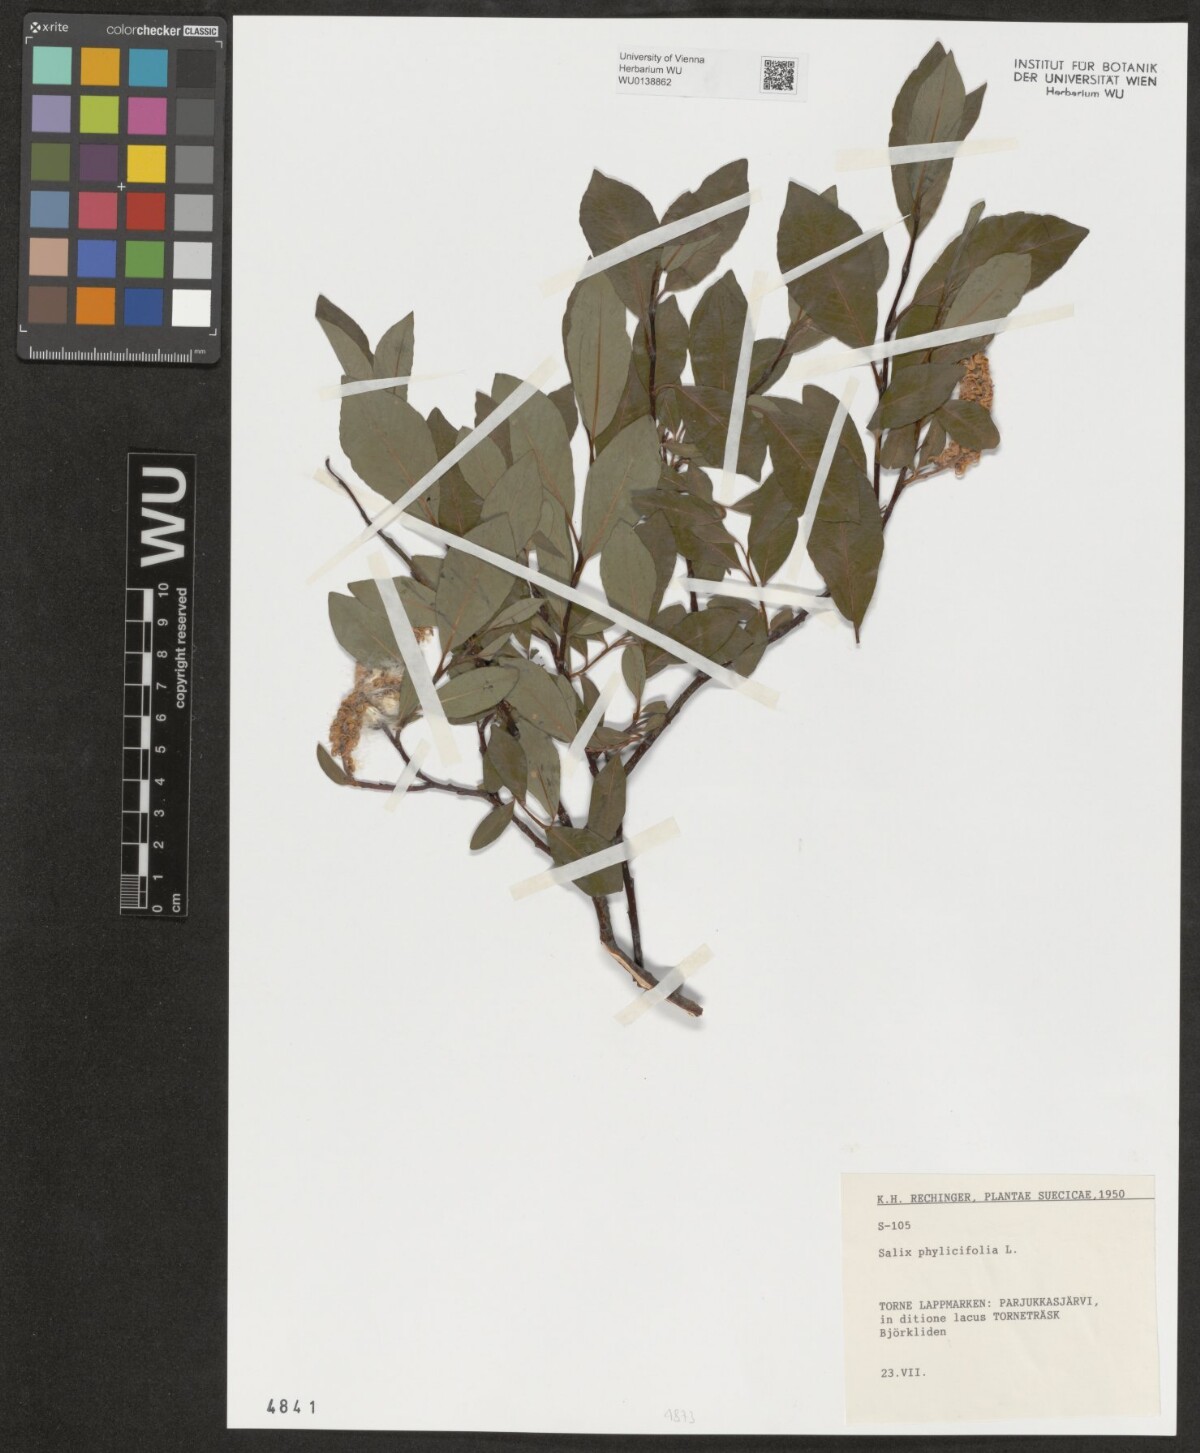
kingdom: Plantae
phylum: Tracheophyta
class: Magnoliopsida
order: Malpighiales
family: Salicaceae
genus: Salix
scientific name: Salix phylicifolia
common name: Tea-leaved willow
